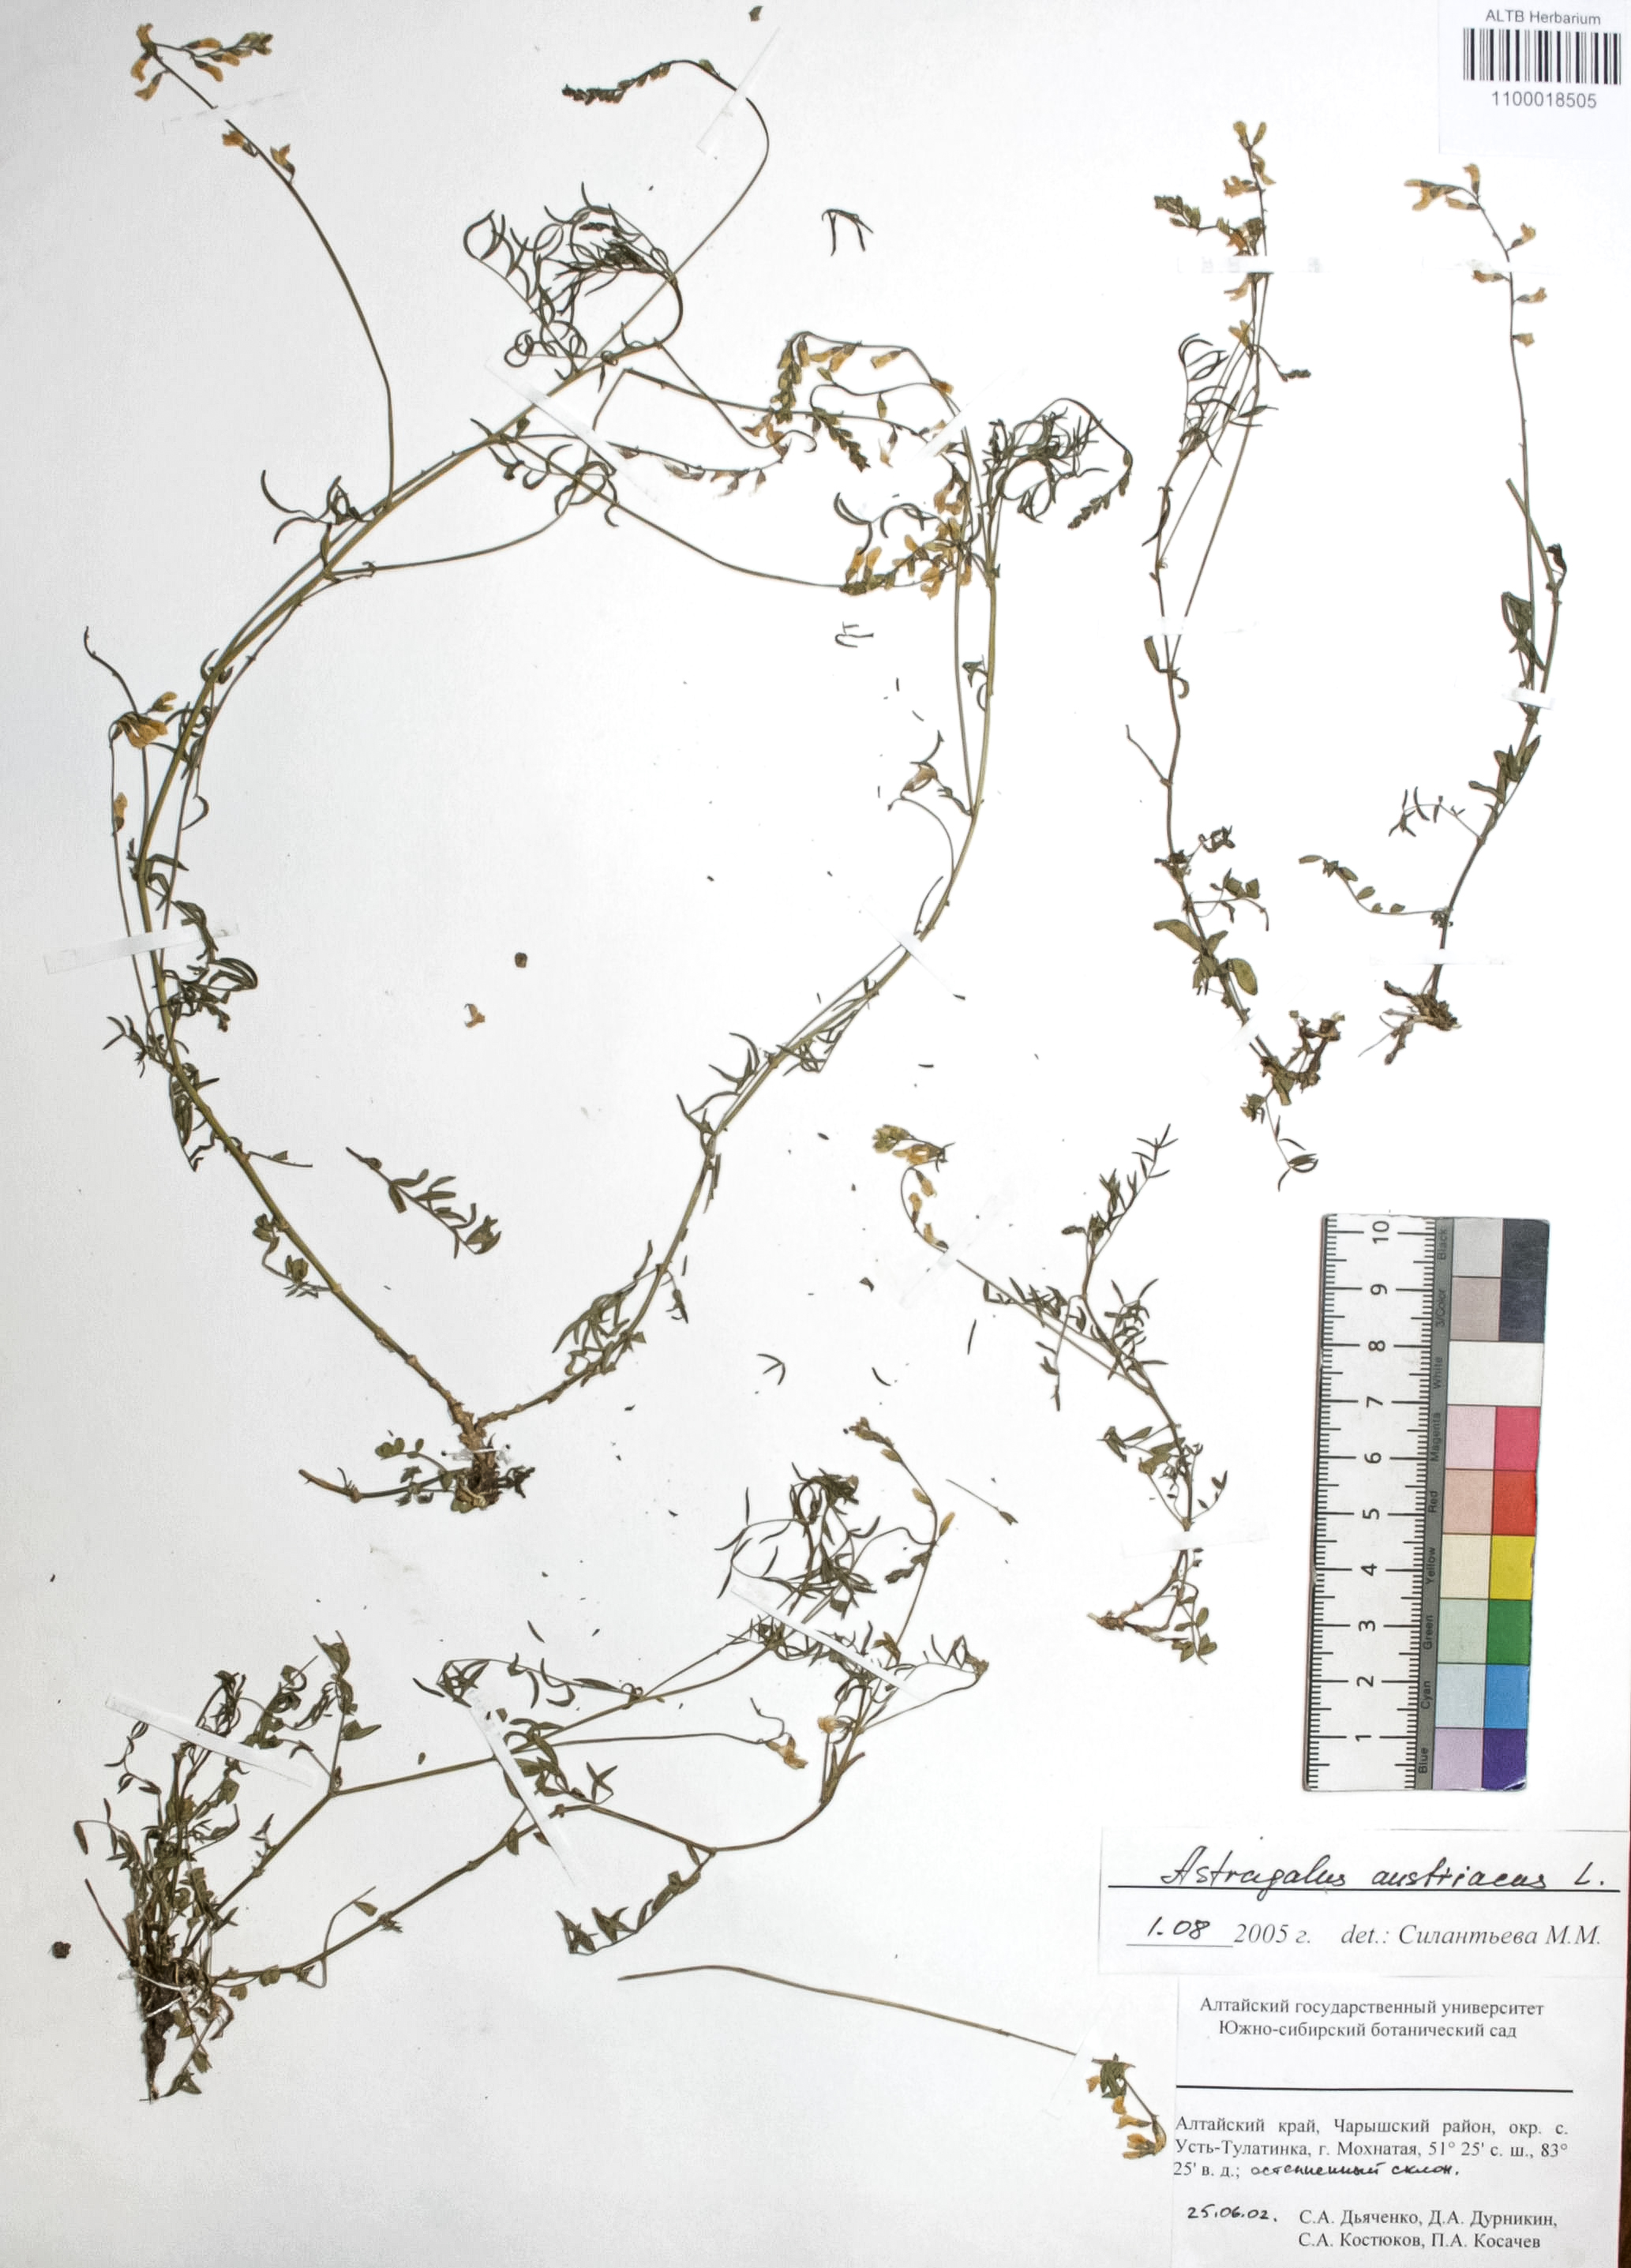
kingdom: Plantae
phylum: Tracheophyta
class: Magnoliopsida
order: Fabales
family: Fabaceae
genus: Astragalus
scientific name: Astragalus austriacus
